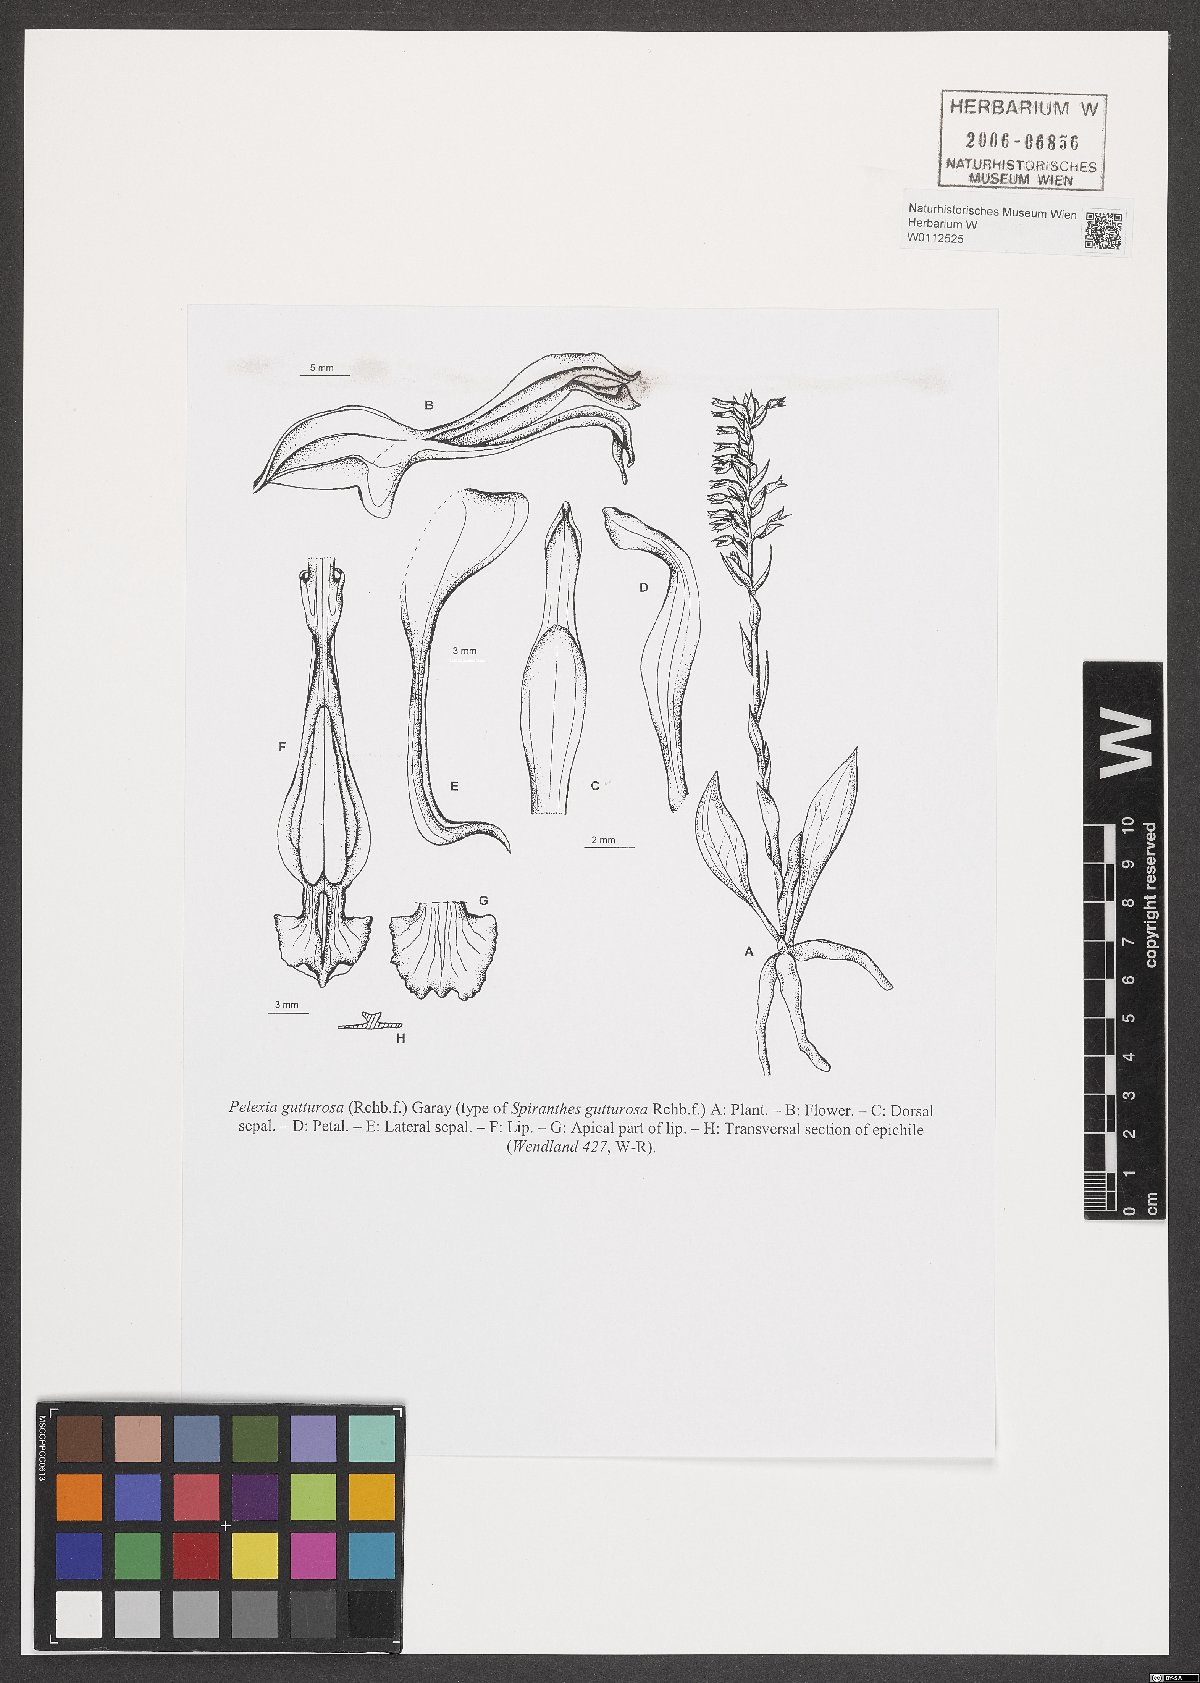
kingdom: Plantae
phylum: Tracheophyta
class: Liliopsida
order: Asparagales
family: Orchidaceae
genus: Pelexia
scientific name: Pelexia gutturosa
